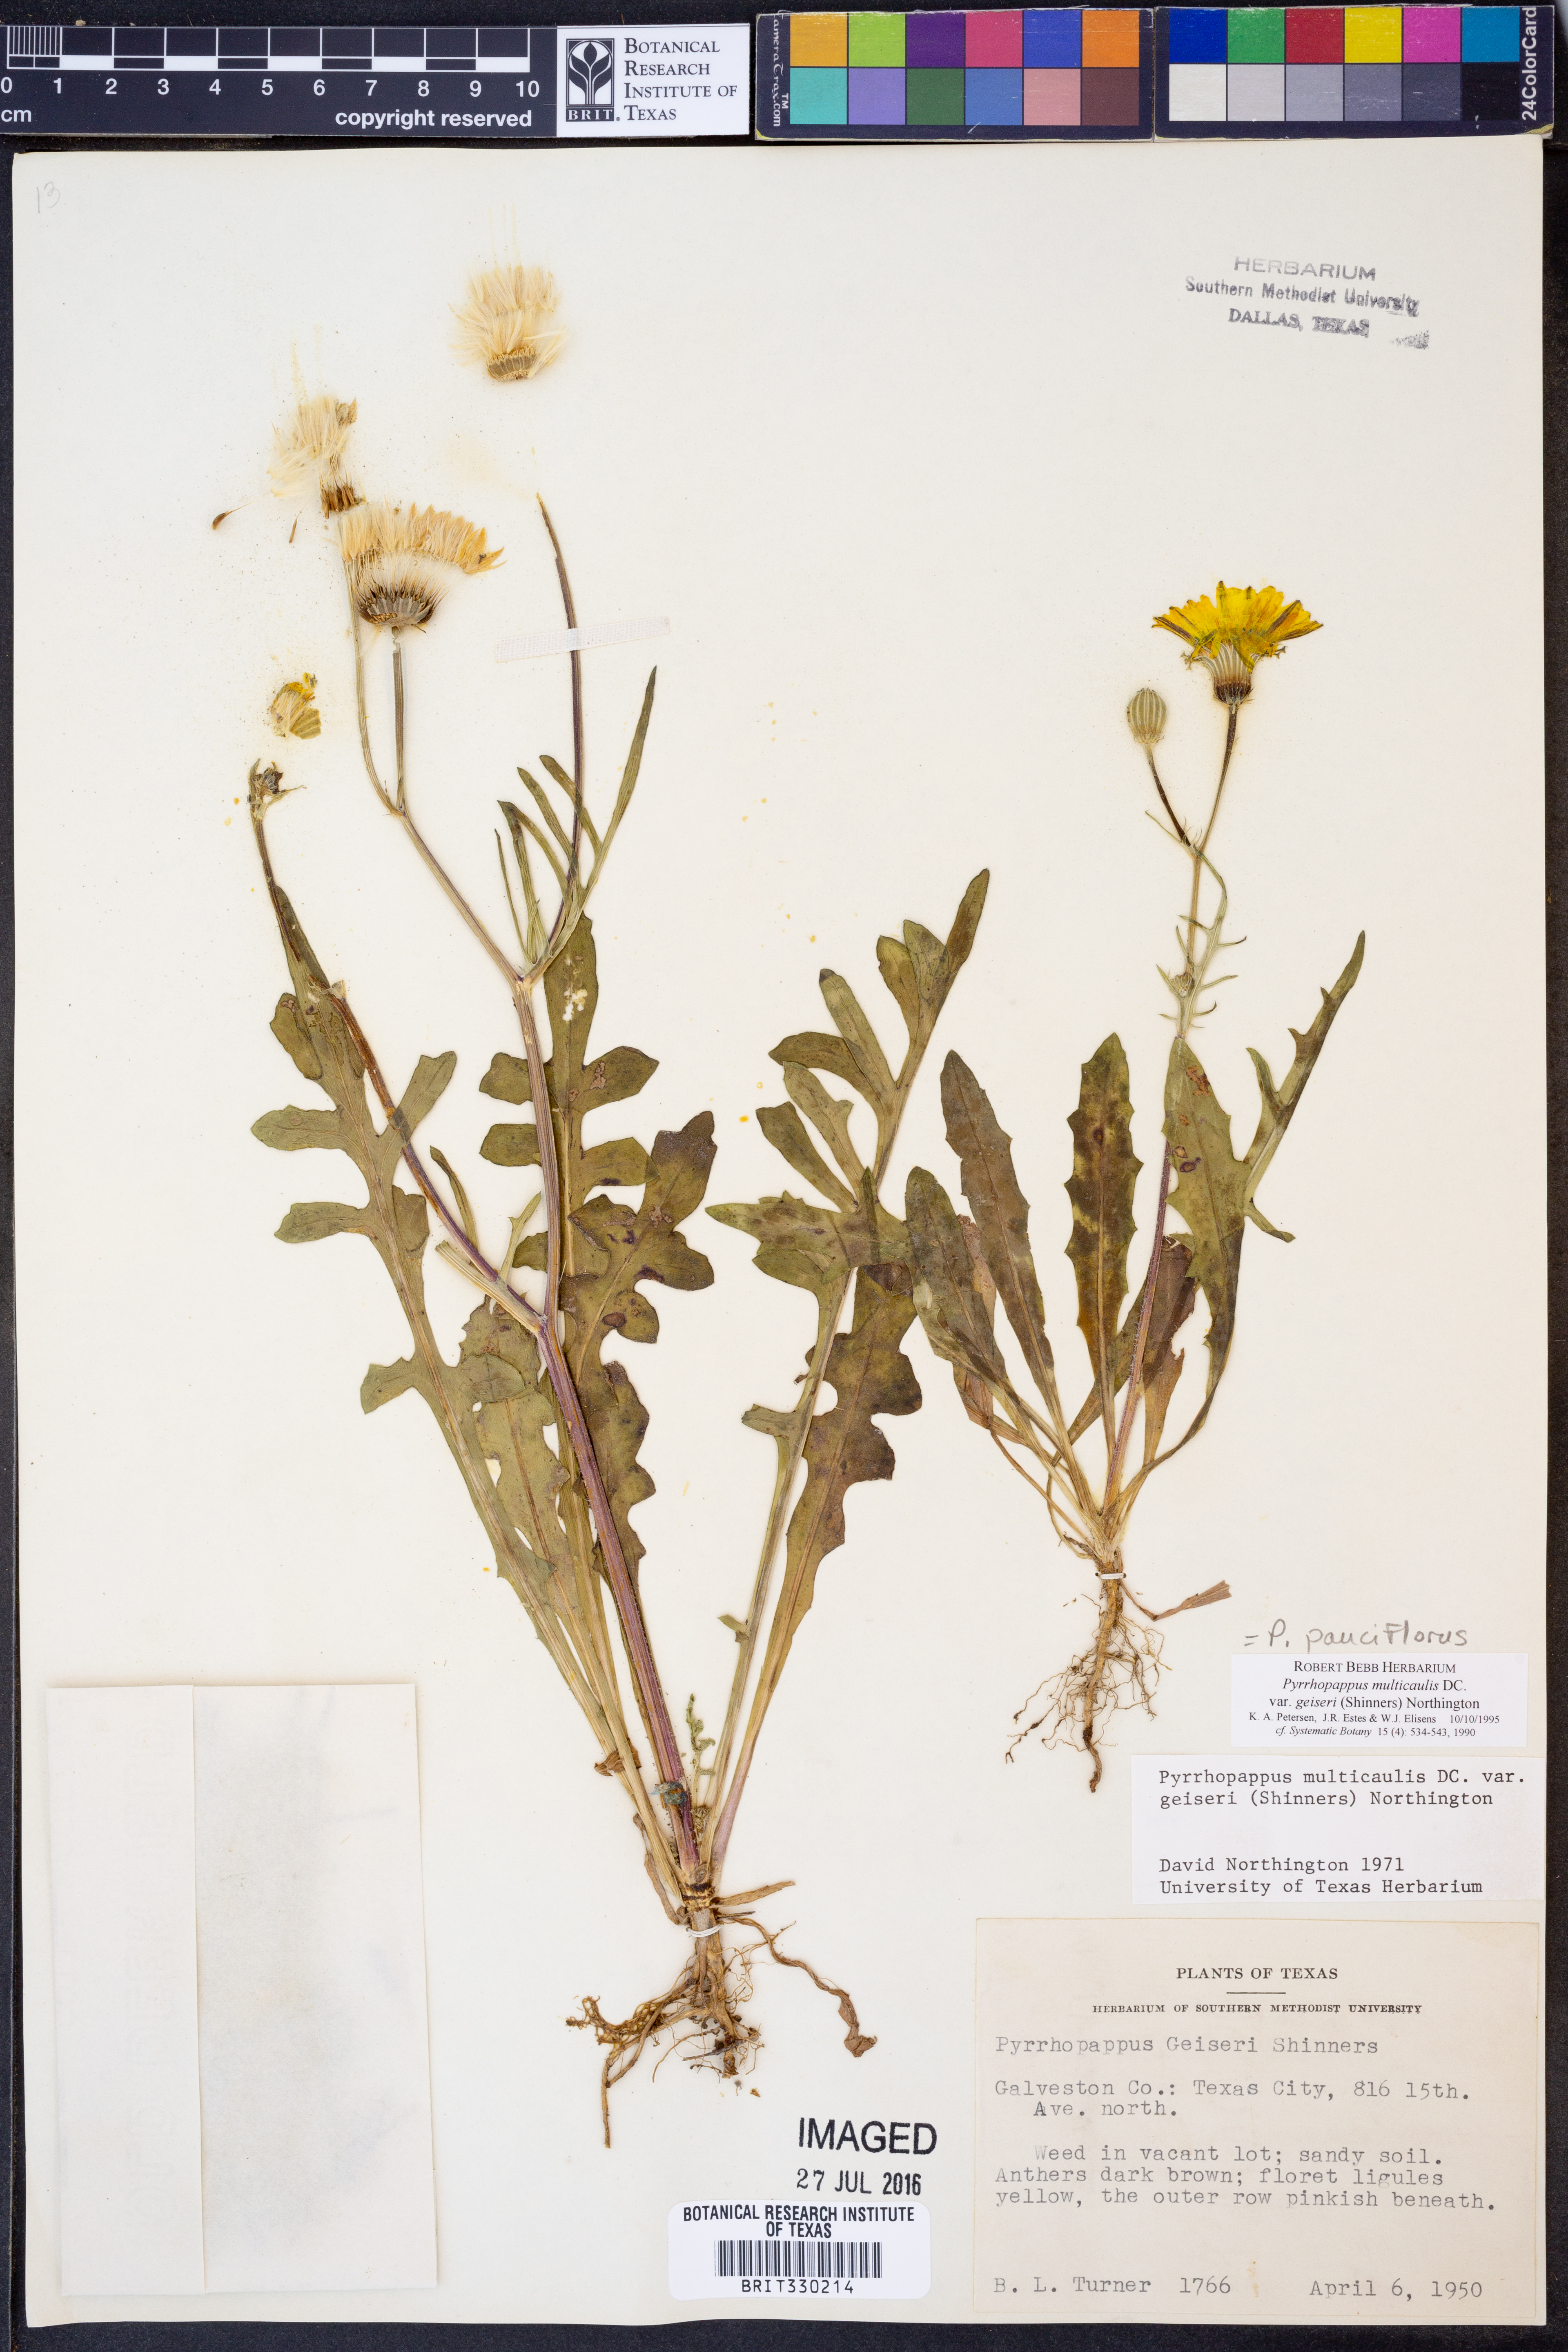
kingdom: Plantae
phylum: Tracheophyta
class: Magnoliopsida
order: Asterales
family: Asteraceae
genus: Pyrrhopappus
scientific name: Pyrrhopappus pauciflorus
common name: Texas false dandelion
